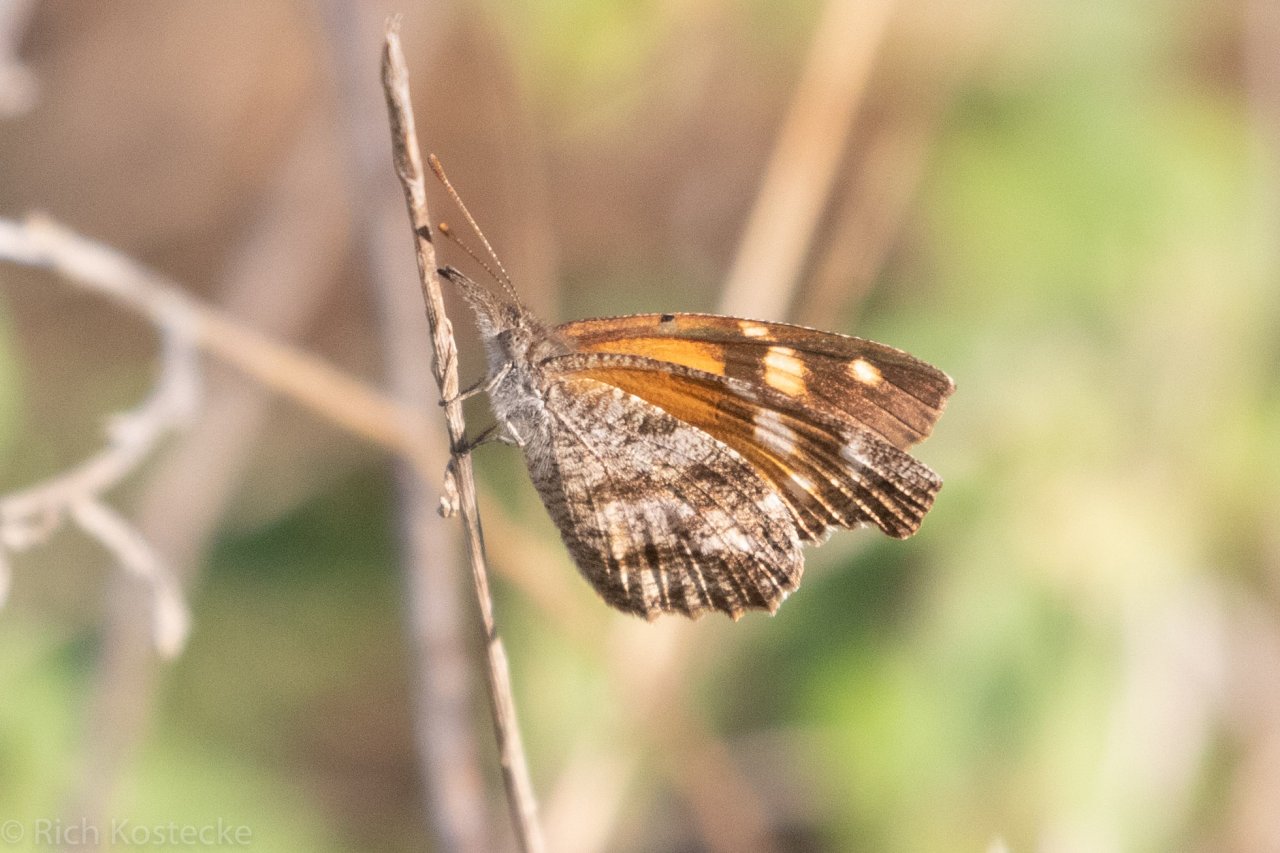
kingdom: Animalia
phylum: Arthropoda
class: Insecta
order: Lepidoptera
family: Nymphalidae
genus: Libytheana
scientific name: Libytheana carinenta
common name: American Snout
